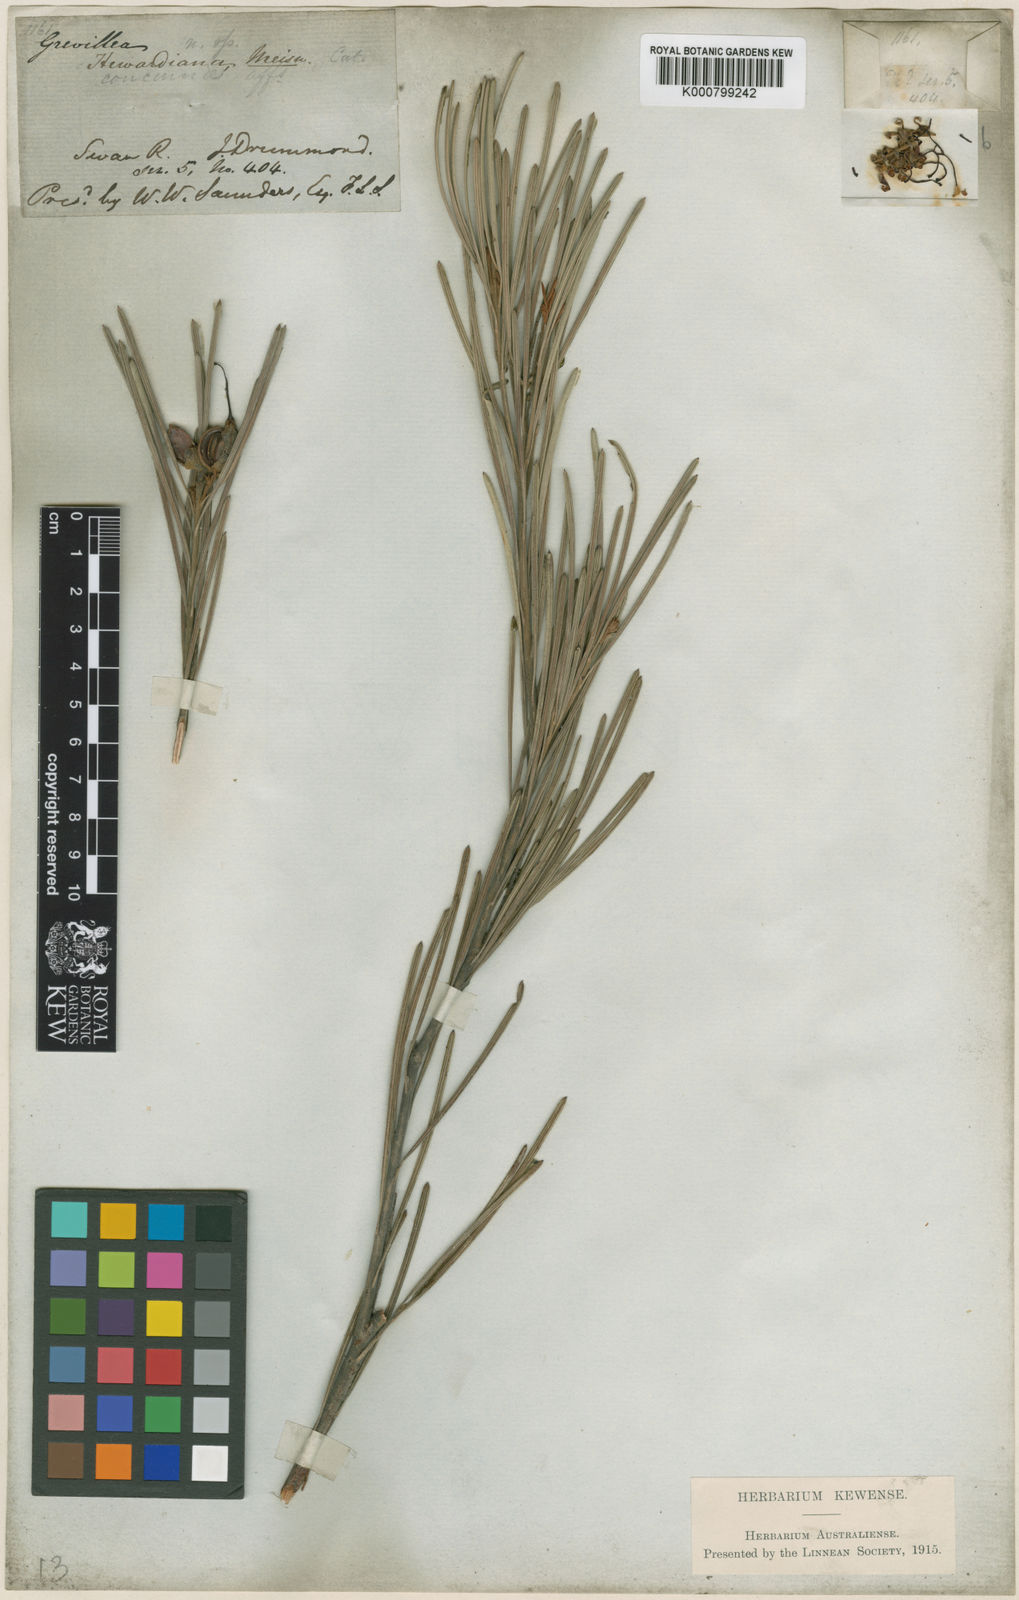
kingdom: Plantae
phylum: Tracheophyta
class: Magnoliopsida
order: Proteales
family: Proteaceae
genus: Grevillea
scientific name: Grevillea concinna
